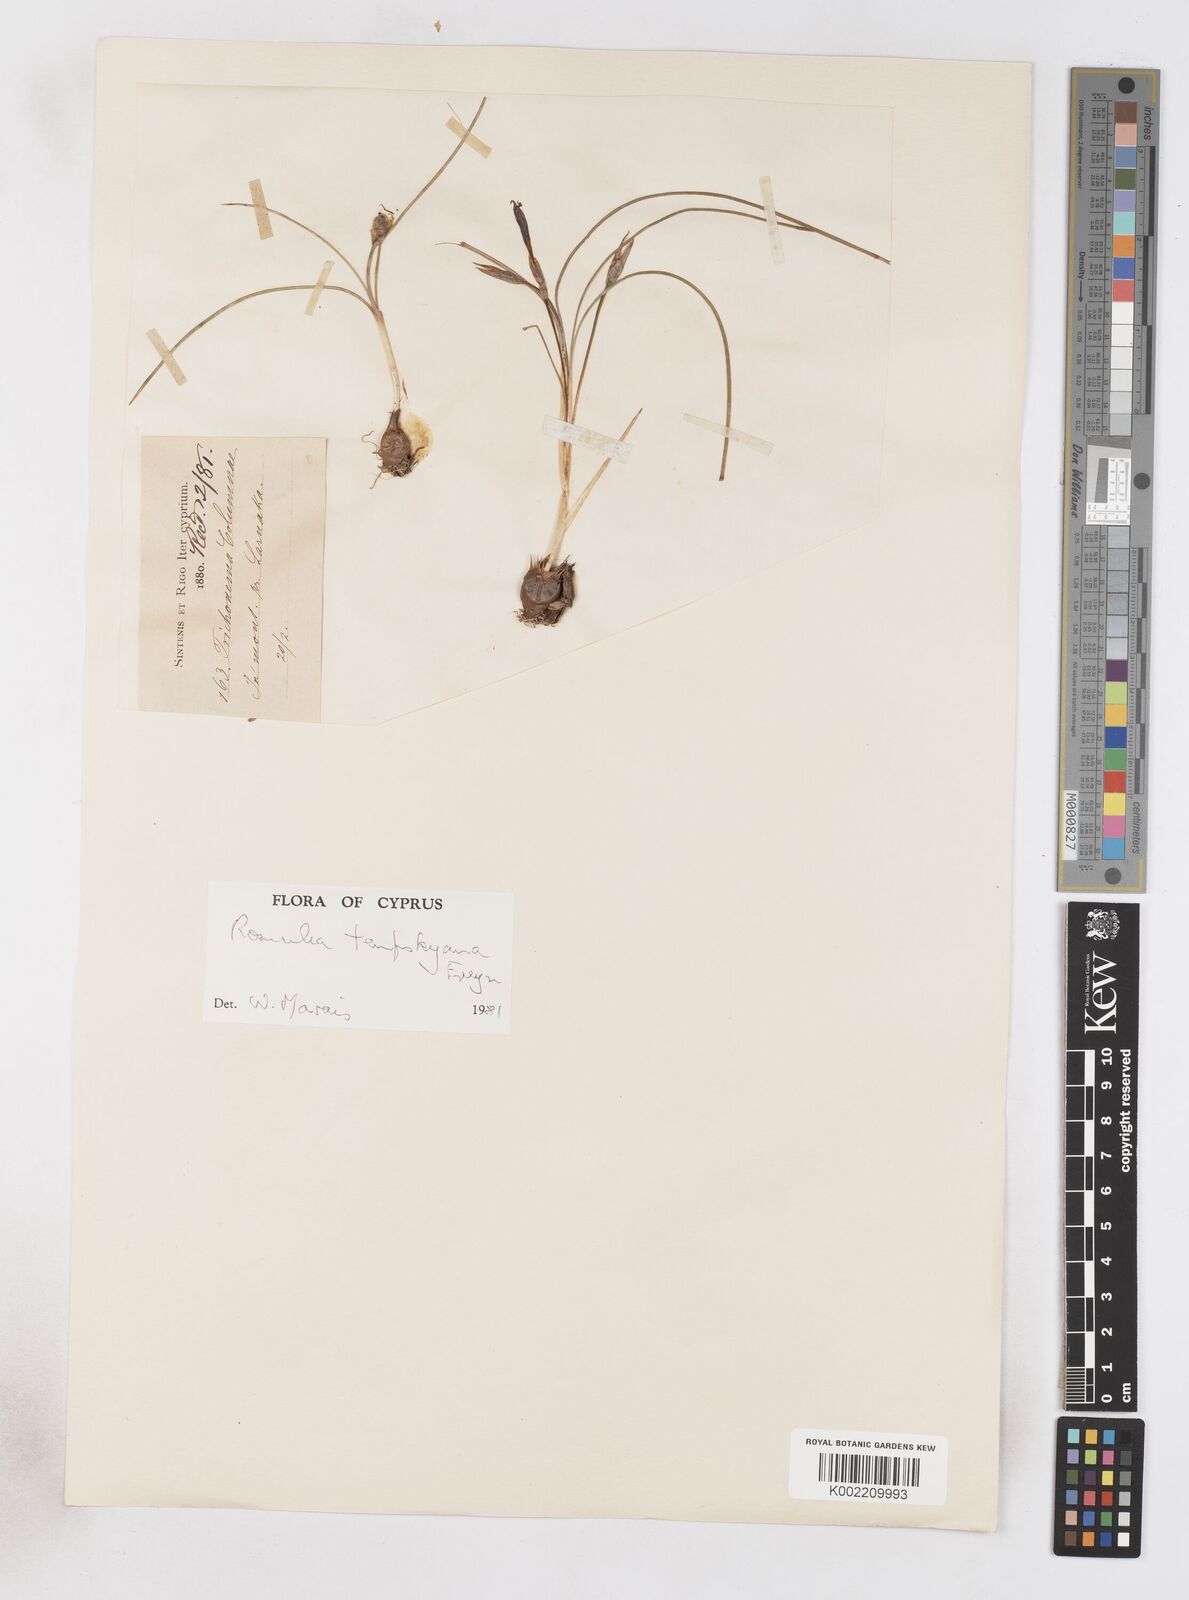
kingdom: Plantae
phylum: Tracheophyta
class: Liliopsida
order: Asparagales
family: Iridaceae
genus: Romulea
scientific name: Romulea tempskyana
